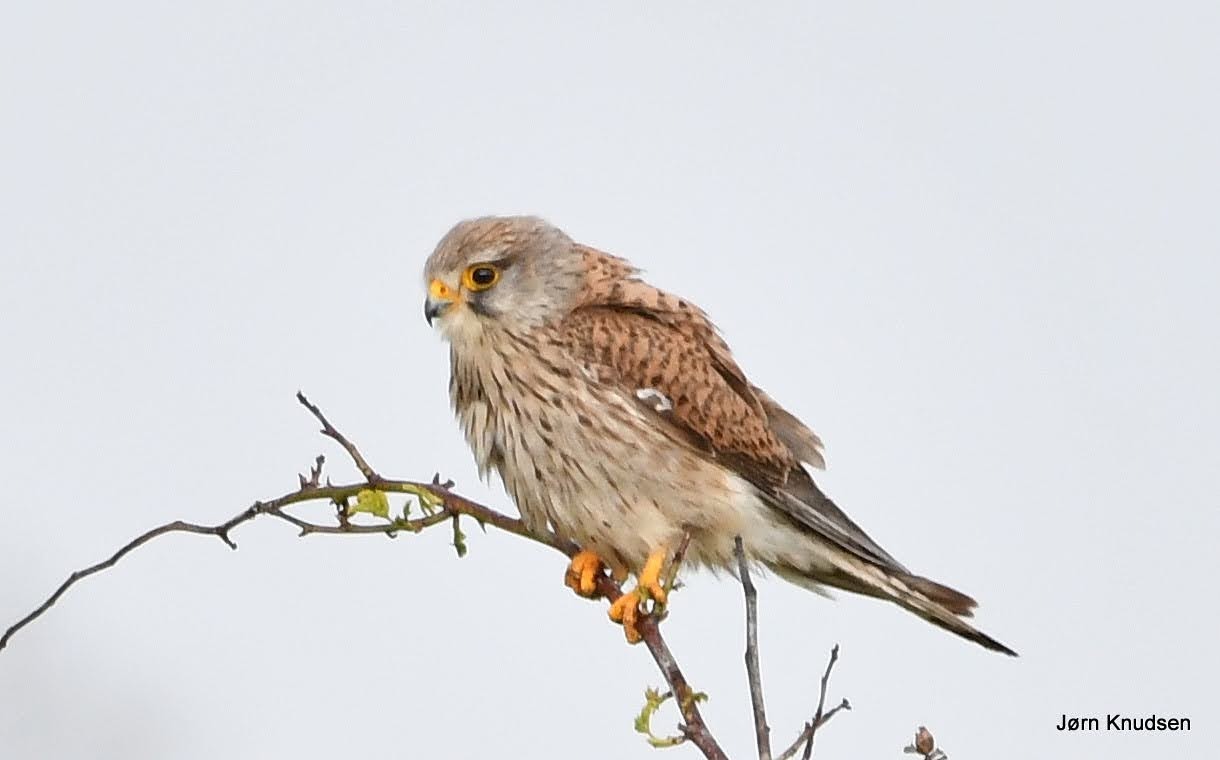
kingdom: Animalia
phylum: Chordata
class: Aves
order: Falconiformes
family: Falconidae
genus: Falco
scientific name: Falco tinnunculus
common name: Tårnfalk
